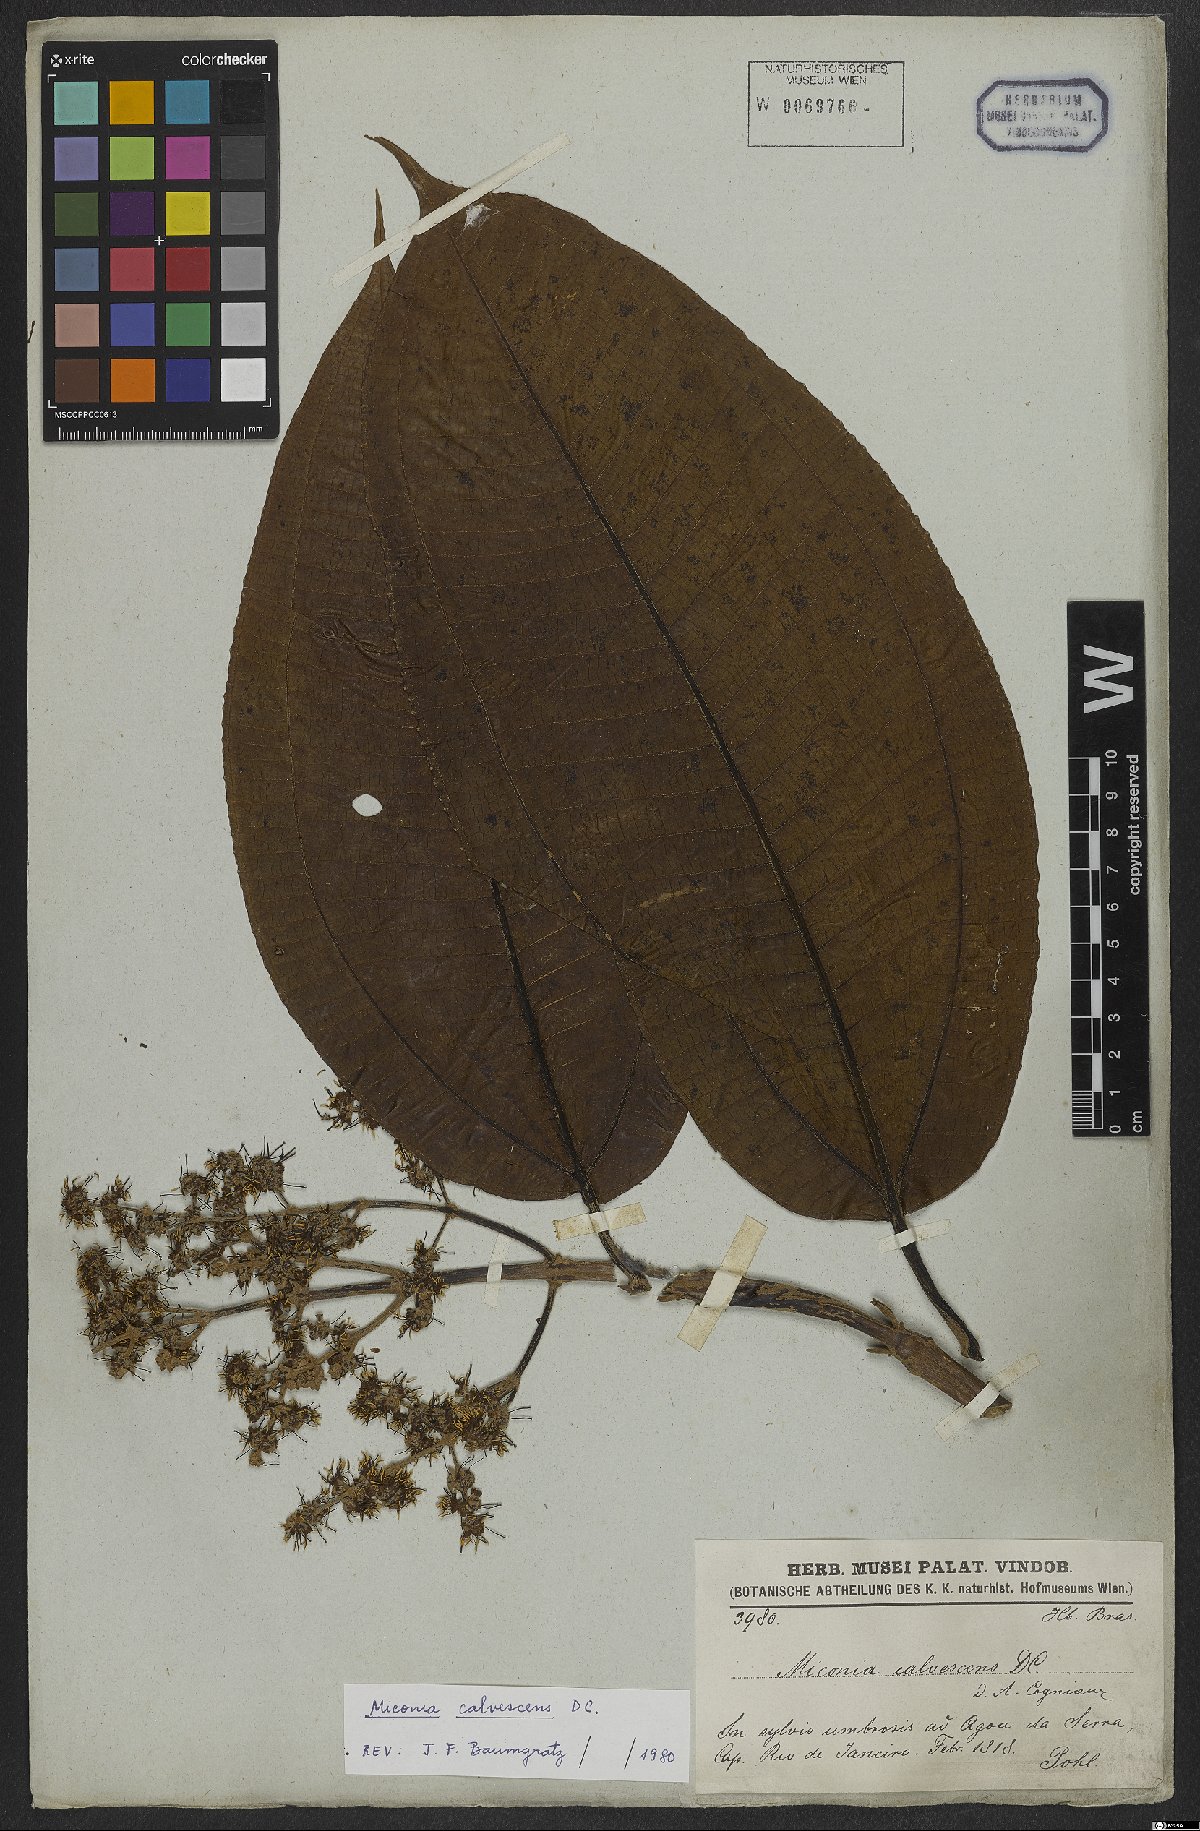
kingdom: Plantae
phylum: Tracheophyta
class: Magnoliopsida
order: Myrtales
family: Melastomataceae
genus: Miconia
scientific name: Miconia calvescens
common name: Purple plague
